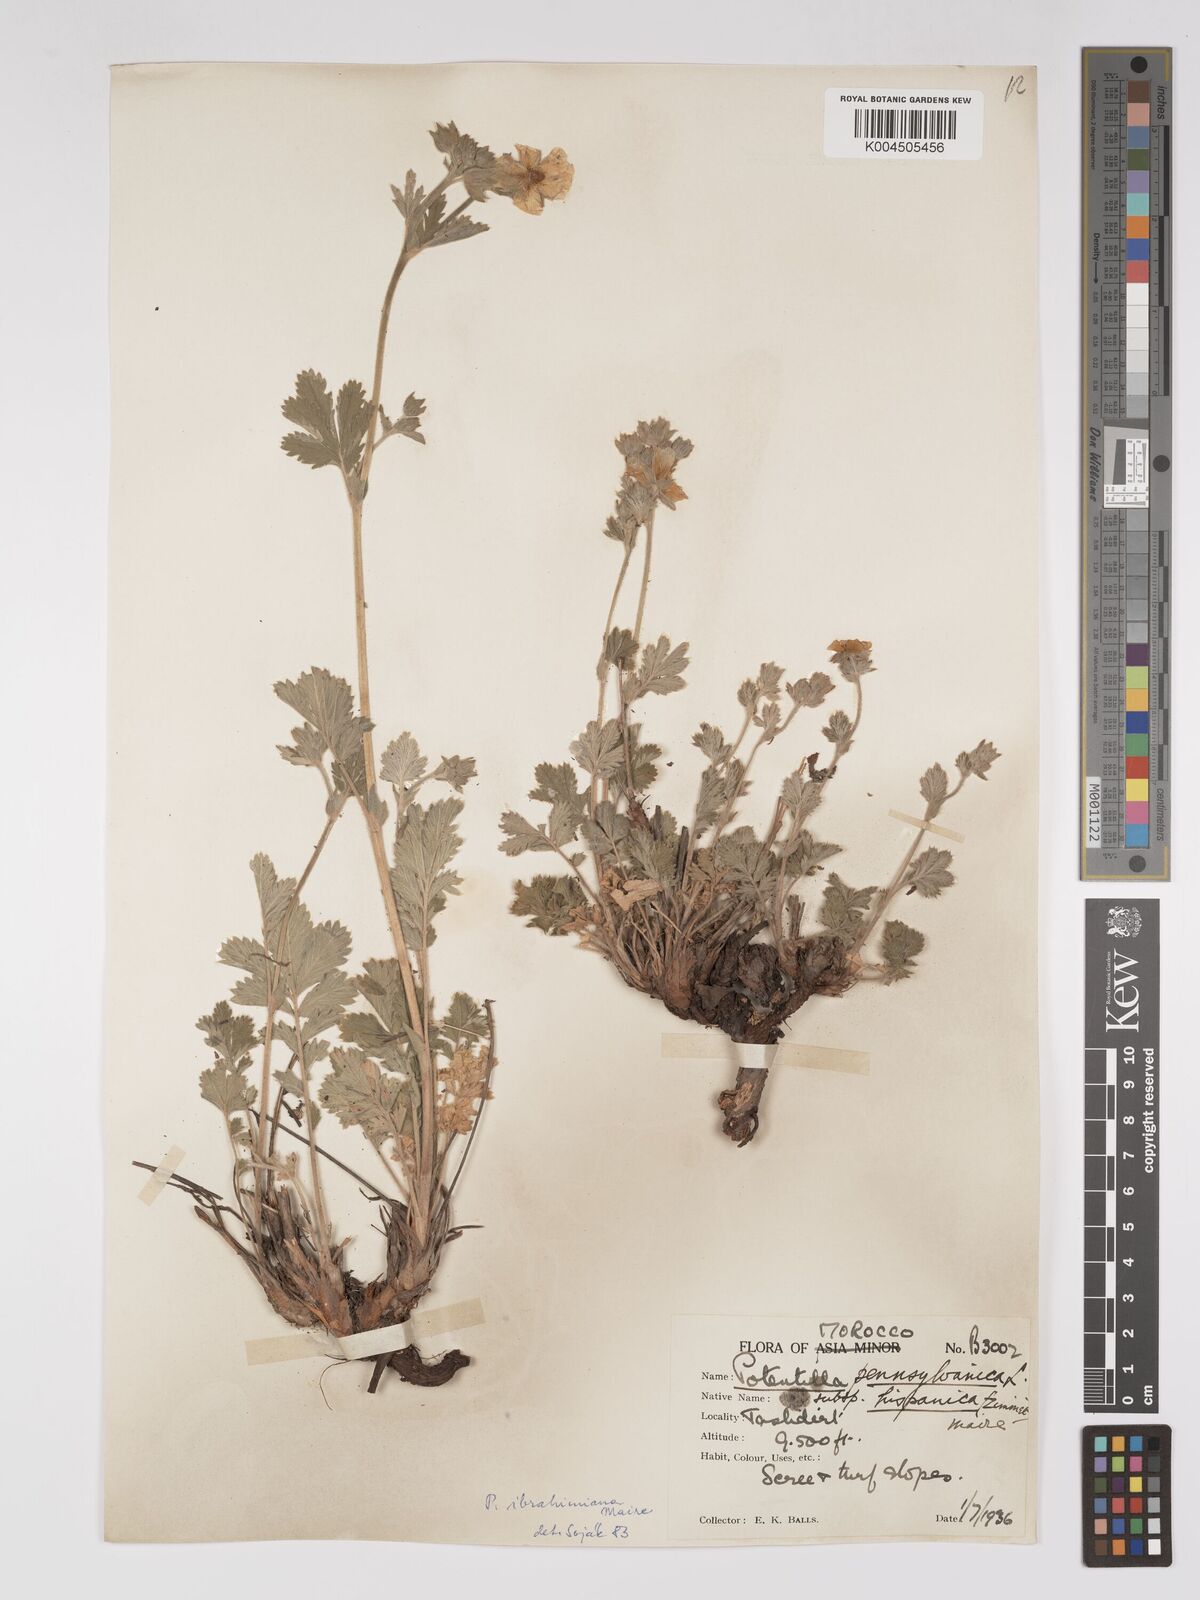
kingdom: Plantae
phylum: Tracheophyta
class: Magnoliopsida
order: Rosales
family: Rosaceae
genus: Potentilla
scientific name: Potentilla pensylvanica
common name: Pennsylvania cinquefoil
